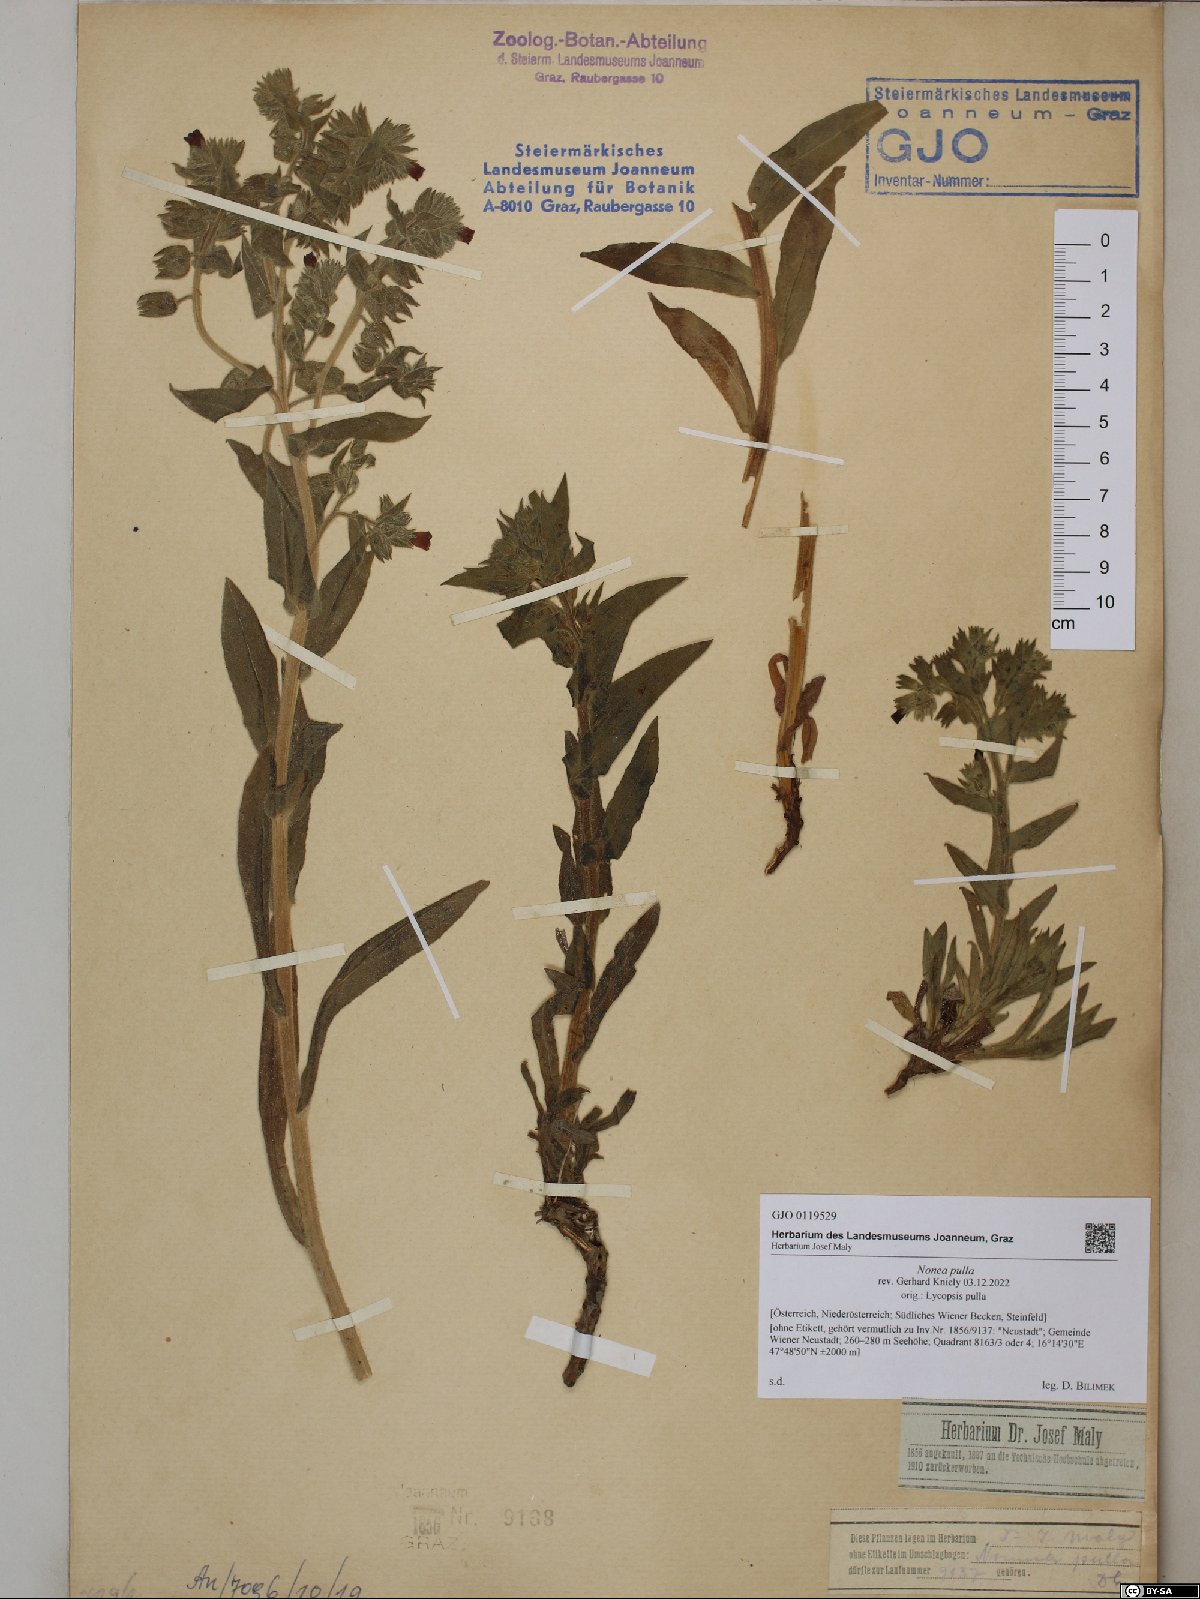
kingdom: Plantae
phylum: Tracheophyta
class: Magnoliopsida
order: Boraginales
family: Boraginaceae
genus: Nonea
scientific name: Nonea pulla
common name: Brown nonea
